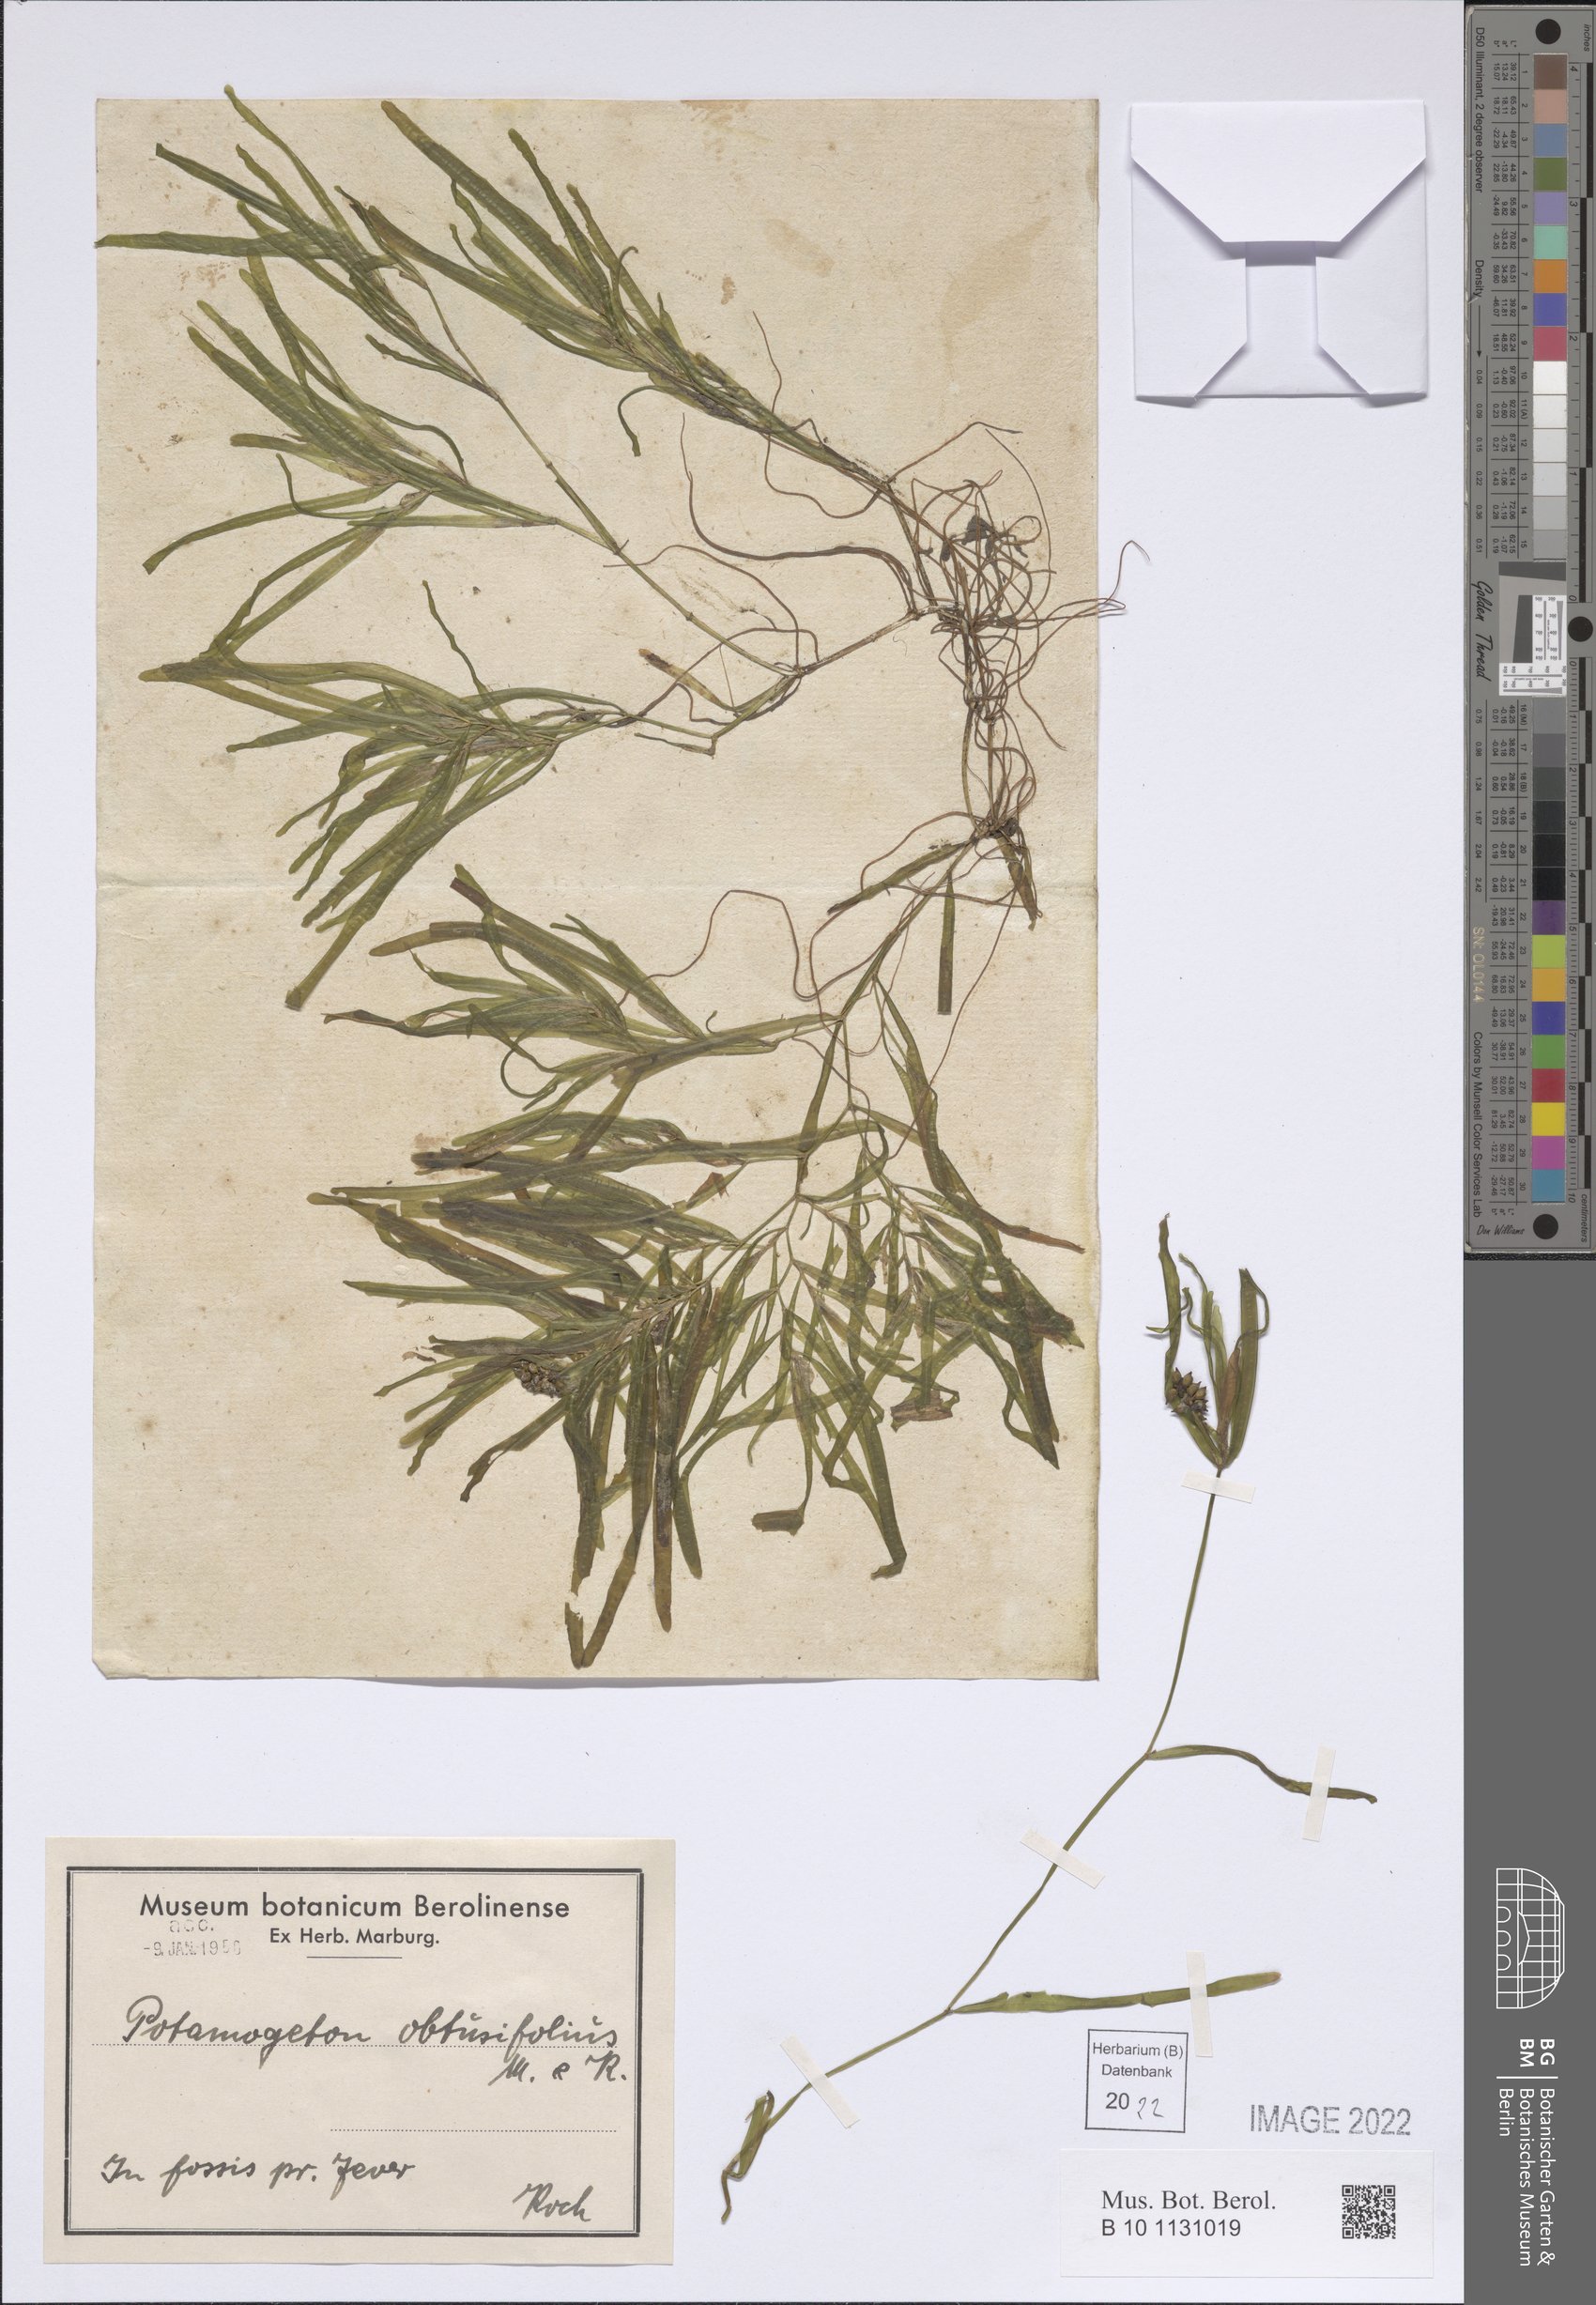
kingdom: Plantae
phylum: Tracheophyta
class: Liliopsida
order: Alismatales
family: Potamogetonaceae
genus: Potamogeton
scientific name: Potamogeton obtusifolius
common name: Blunt-leaved pondweed
